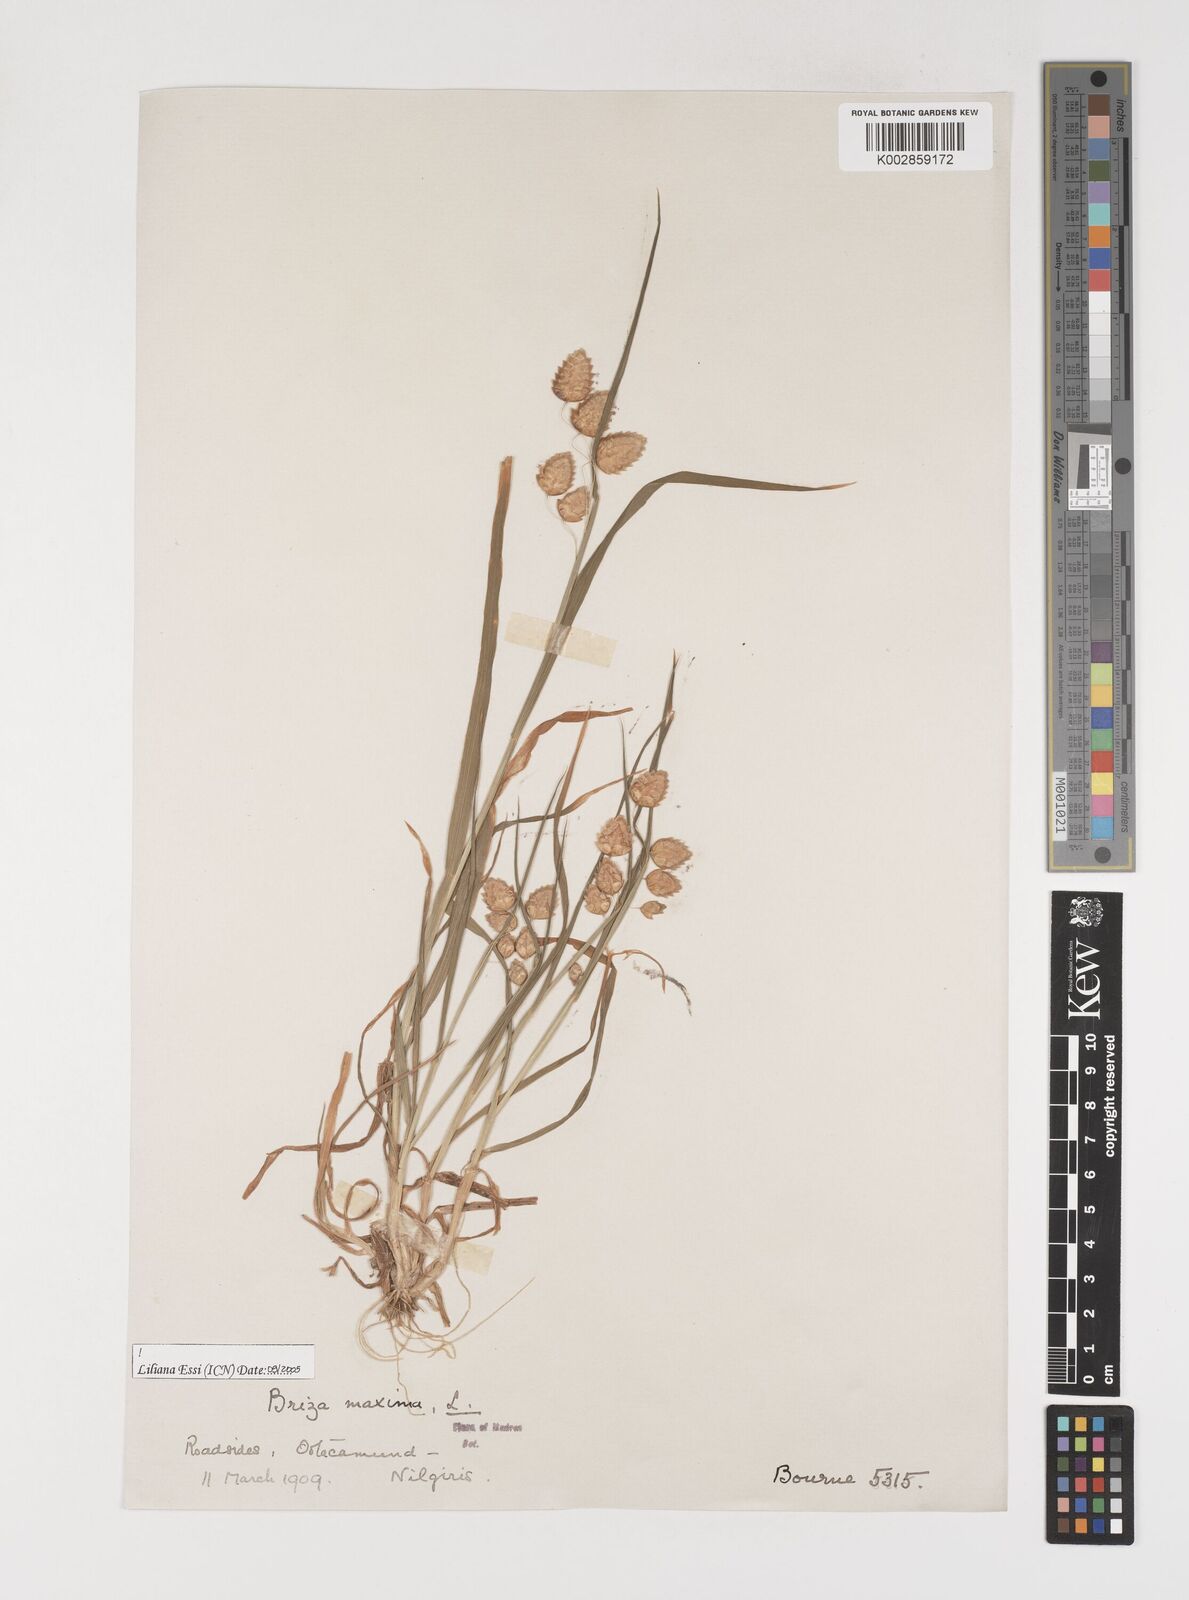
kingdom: Plantae
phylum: Tracheophyta
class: Liliopsida
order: Poales
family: Poaceae
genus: Briza
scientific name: Briza maxima
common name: Big quakinggrass
